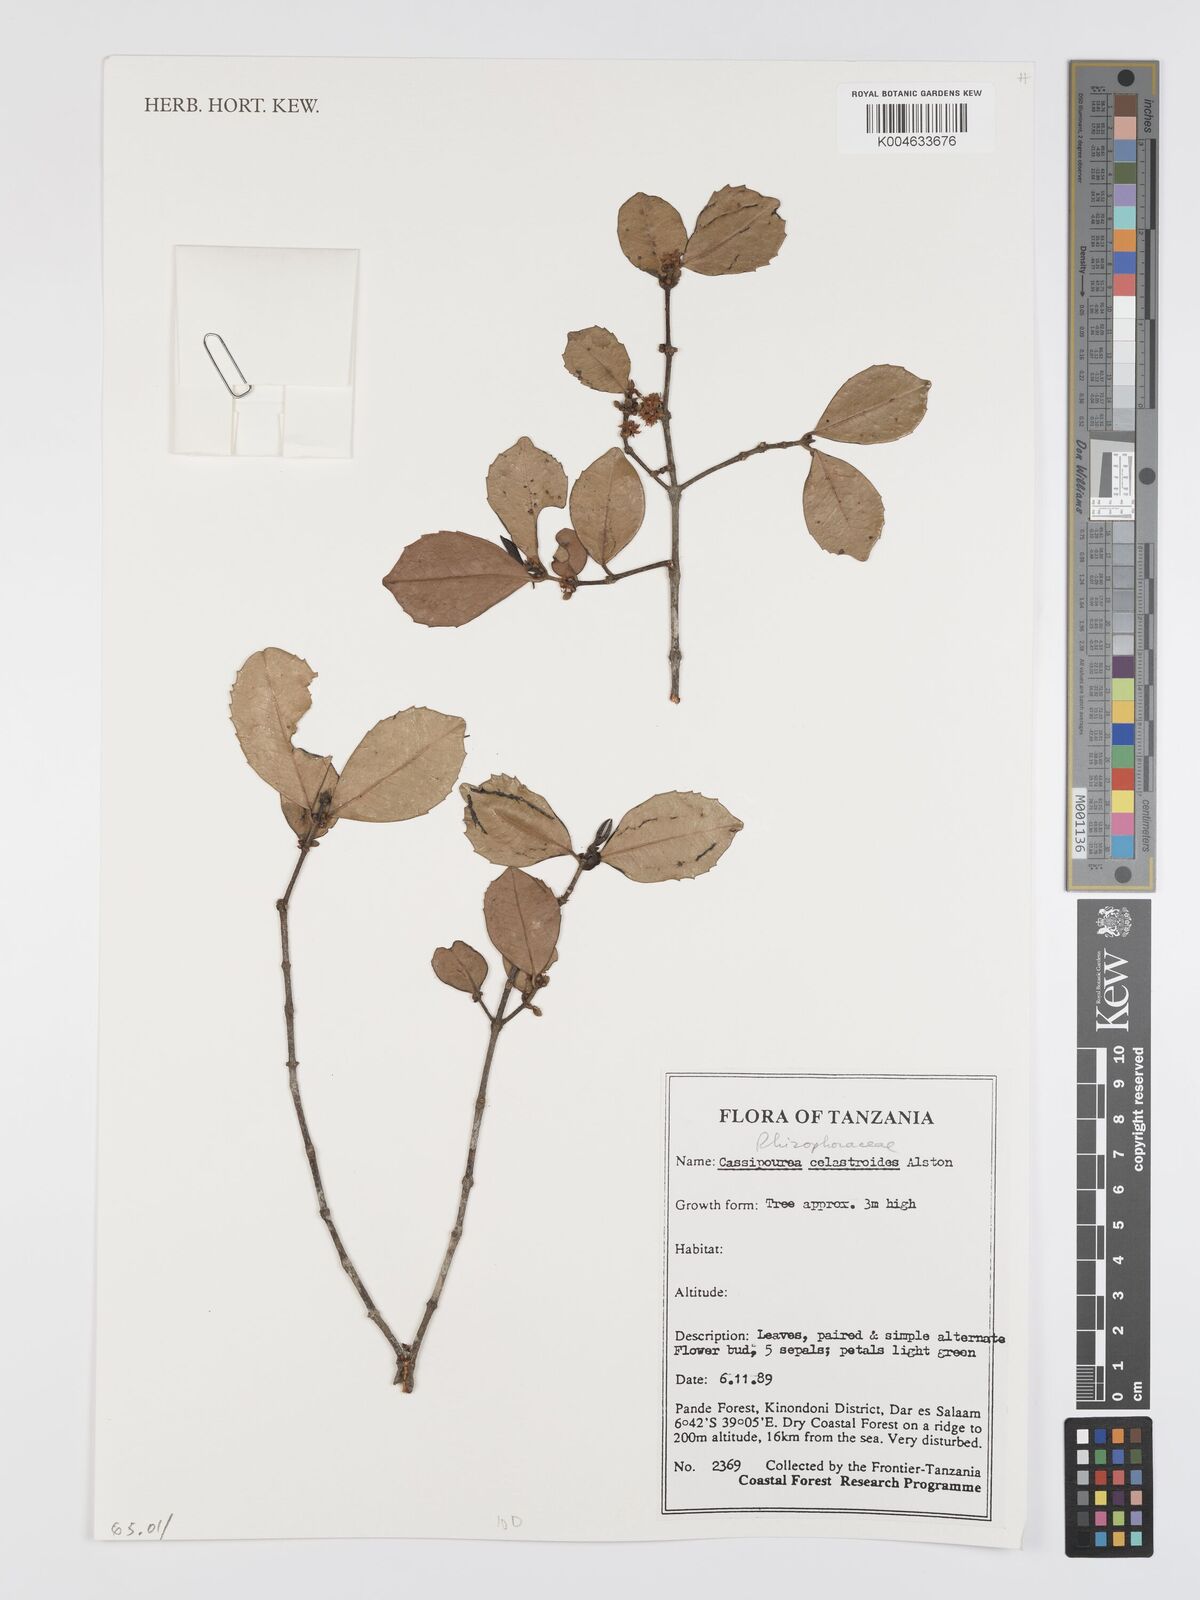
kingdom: Plantae
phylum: Tracheophyta
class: Magnoliopsida
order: Malpighiales
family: Rhizophoraceae
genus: Cassipourea
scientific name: Cassipourea celastroides
